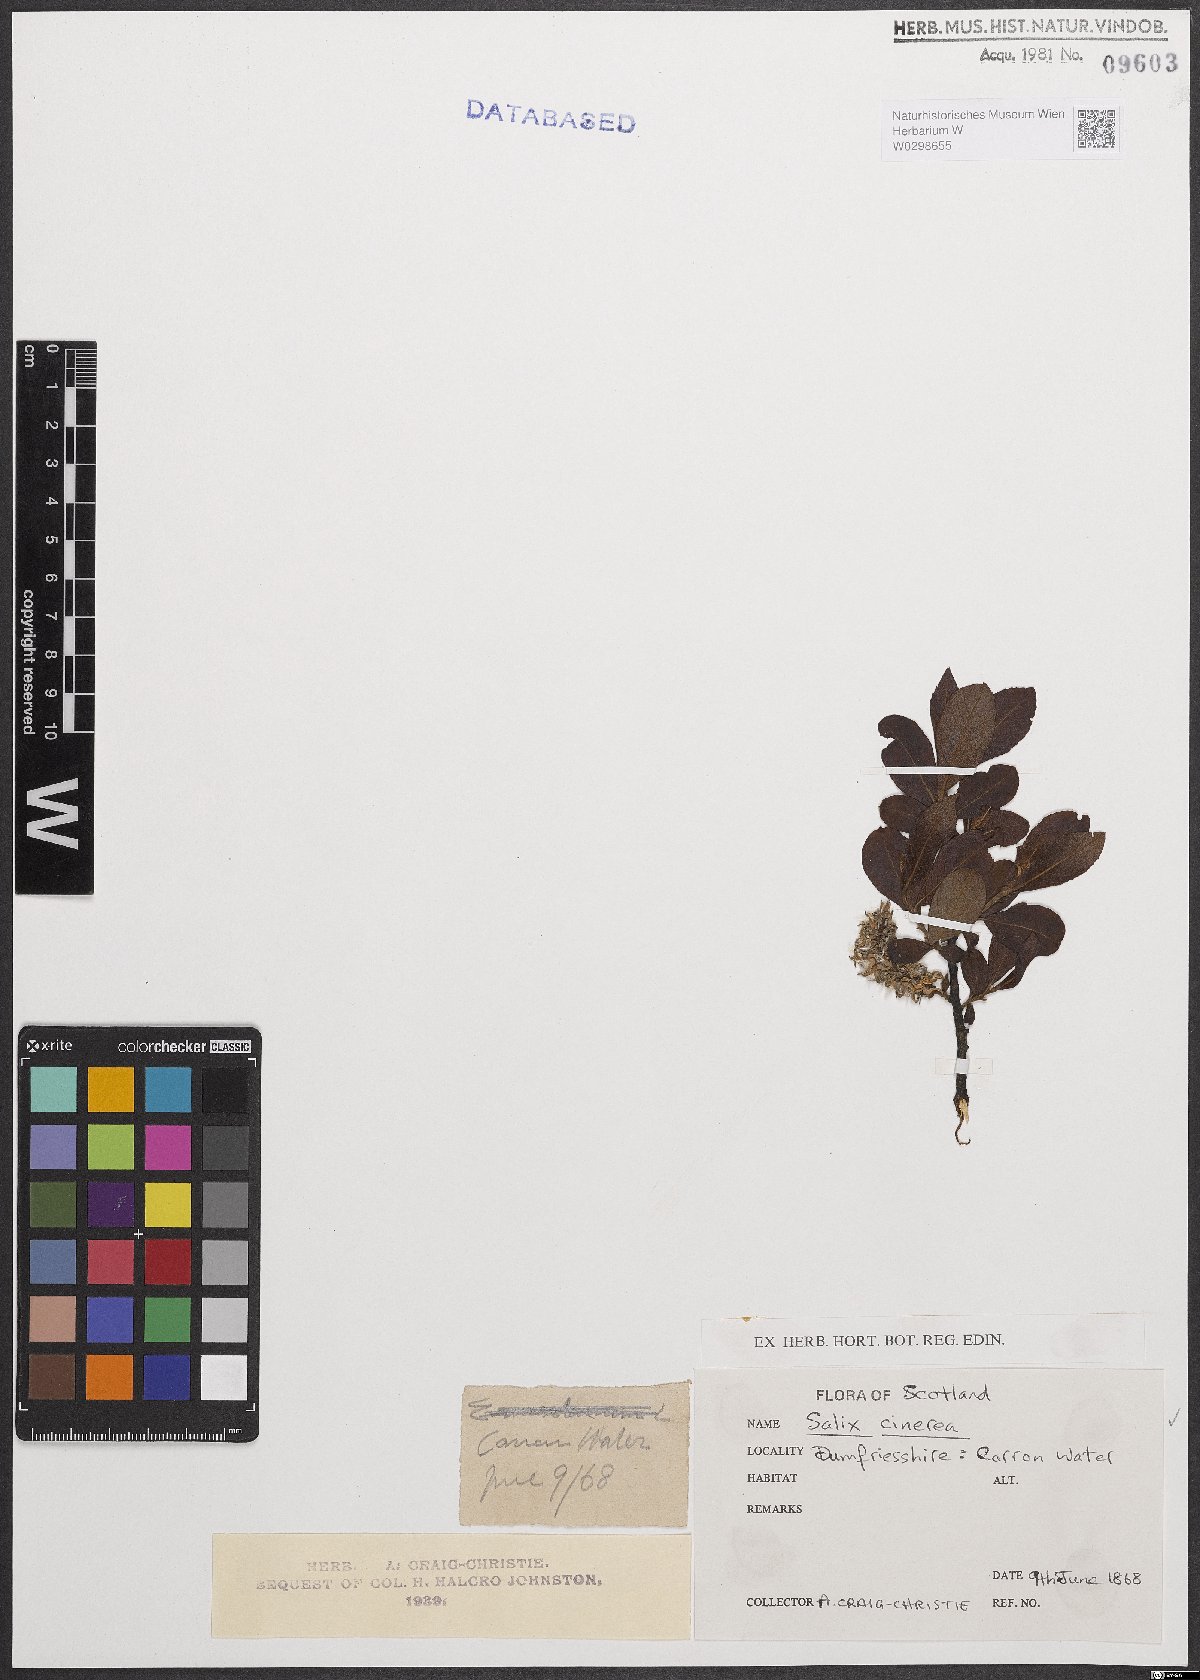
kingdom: Plantae
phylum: Tracheophyta
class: Magnoliopsida
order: Malpighiales
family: Salicaceae
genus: Salix
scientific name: Salix cinerea
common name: Common sallow
